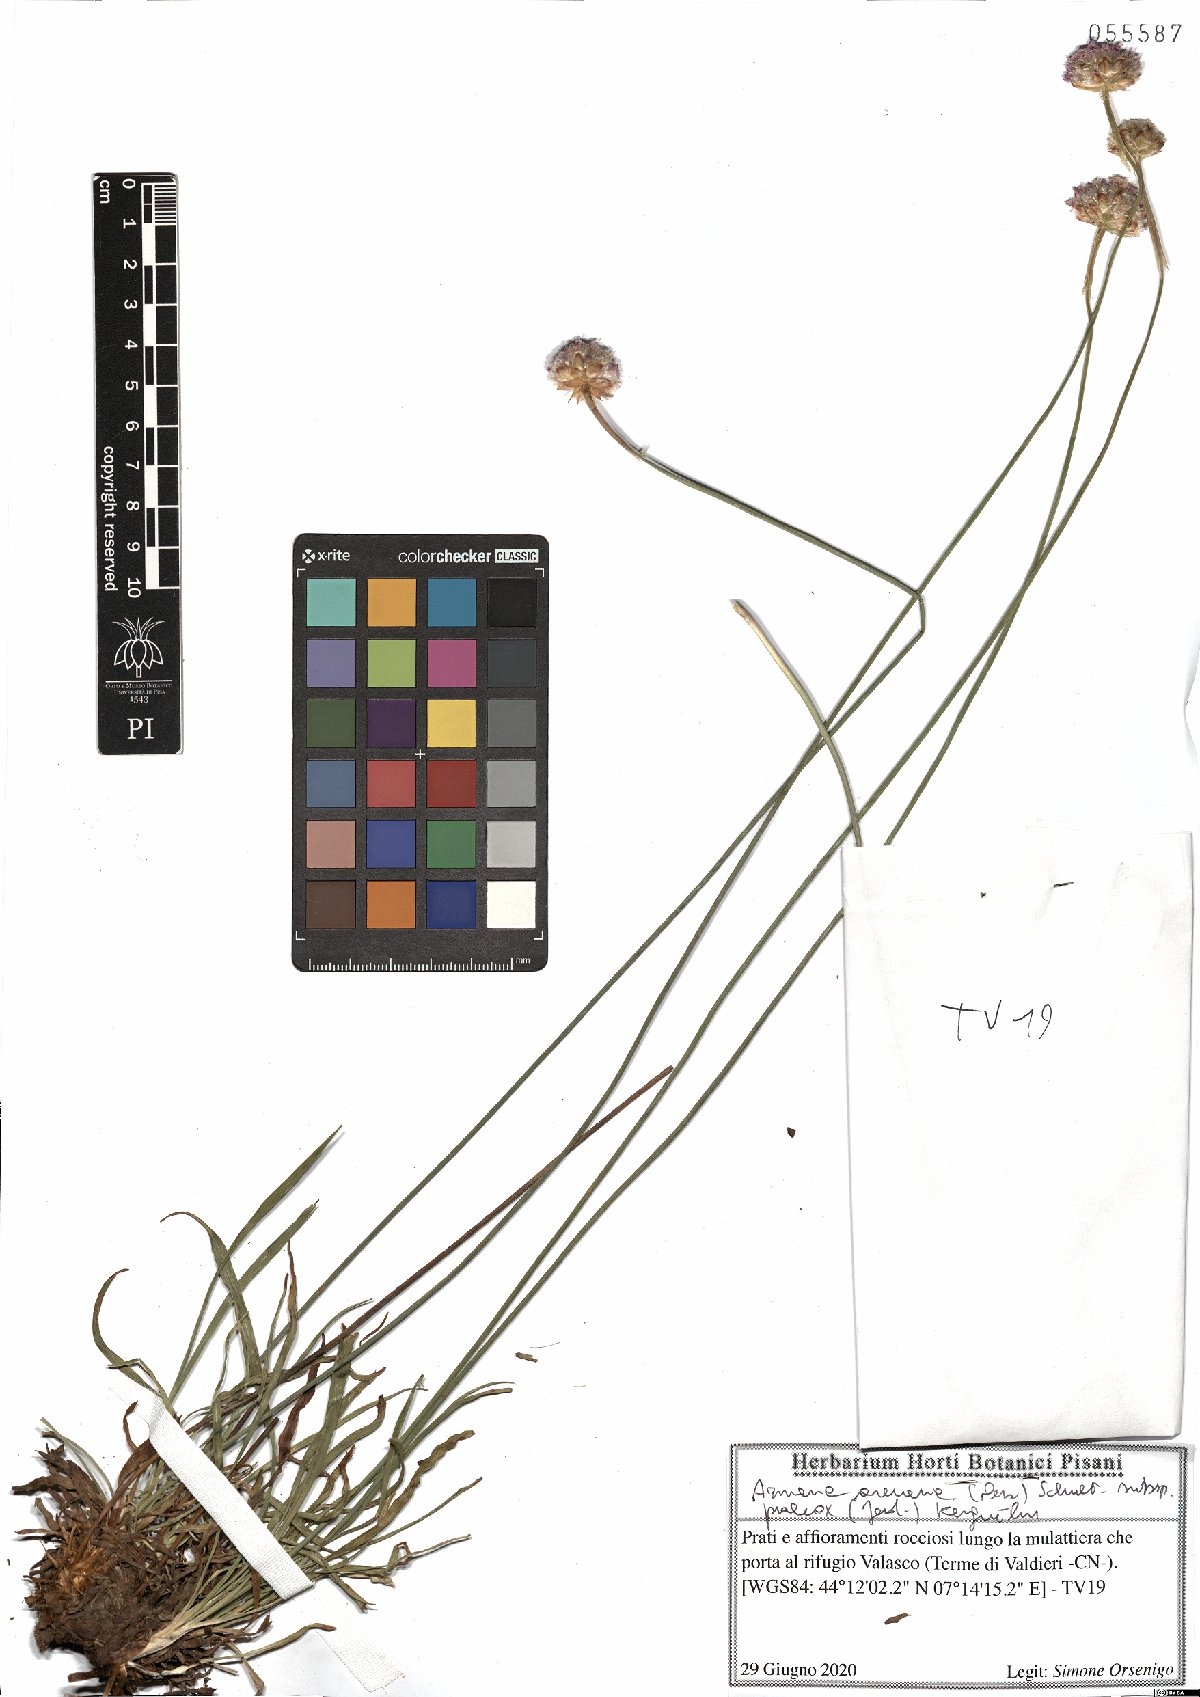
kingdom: Plantae
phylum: Tracheophyta
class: Magnoliopsida
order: Caryophyllales
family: Plumbaginaceae
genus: Armeria
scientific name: Armeria arenaria
